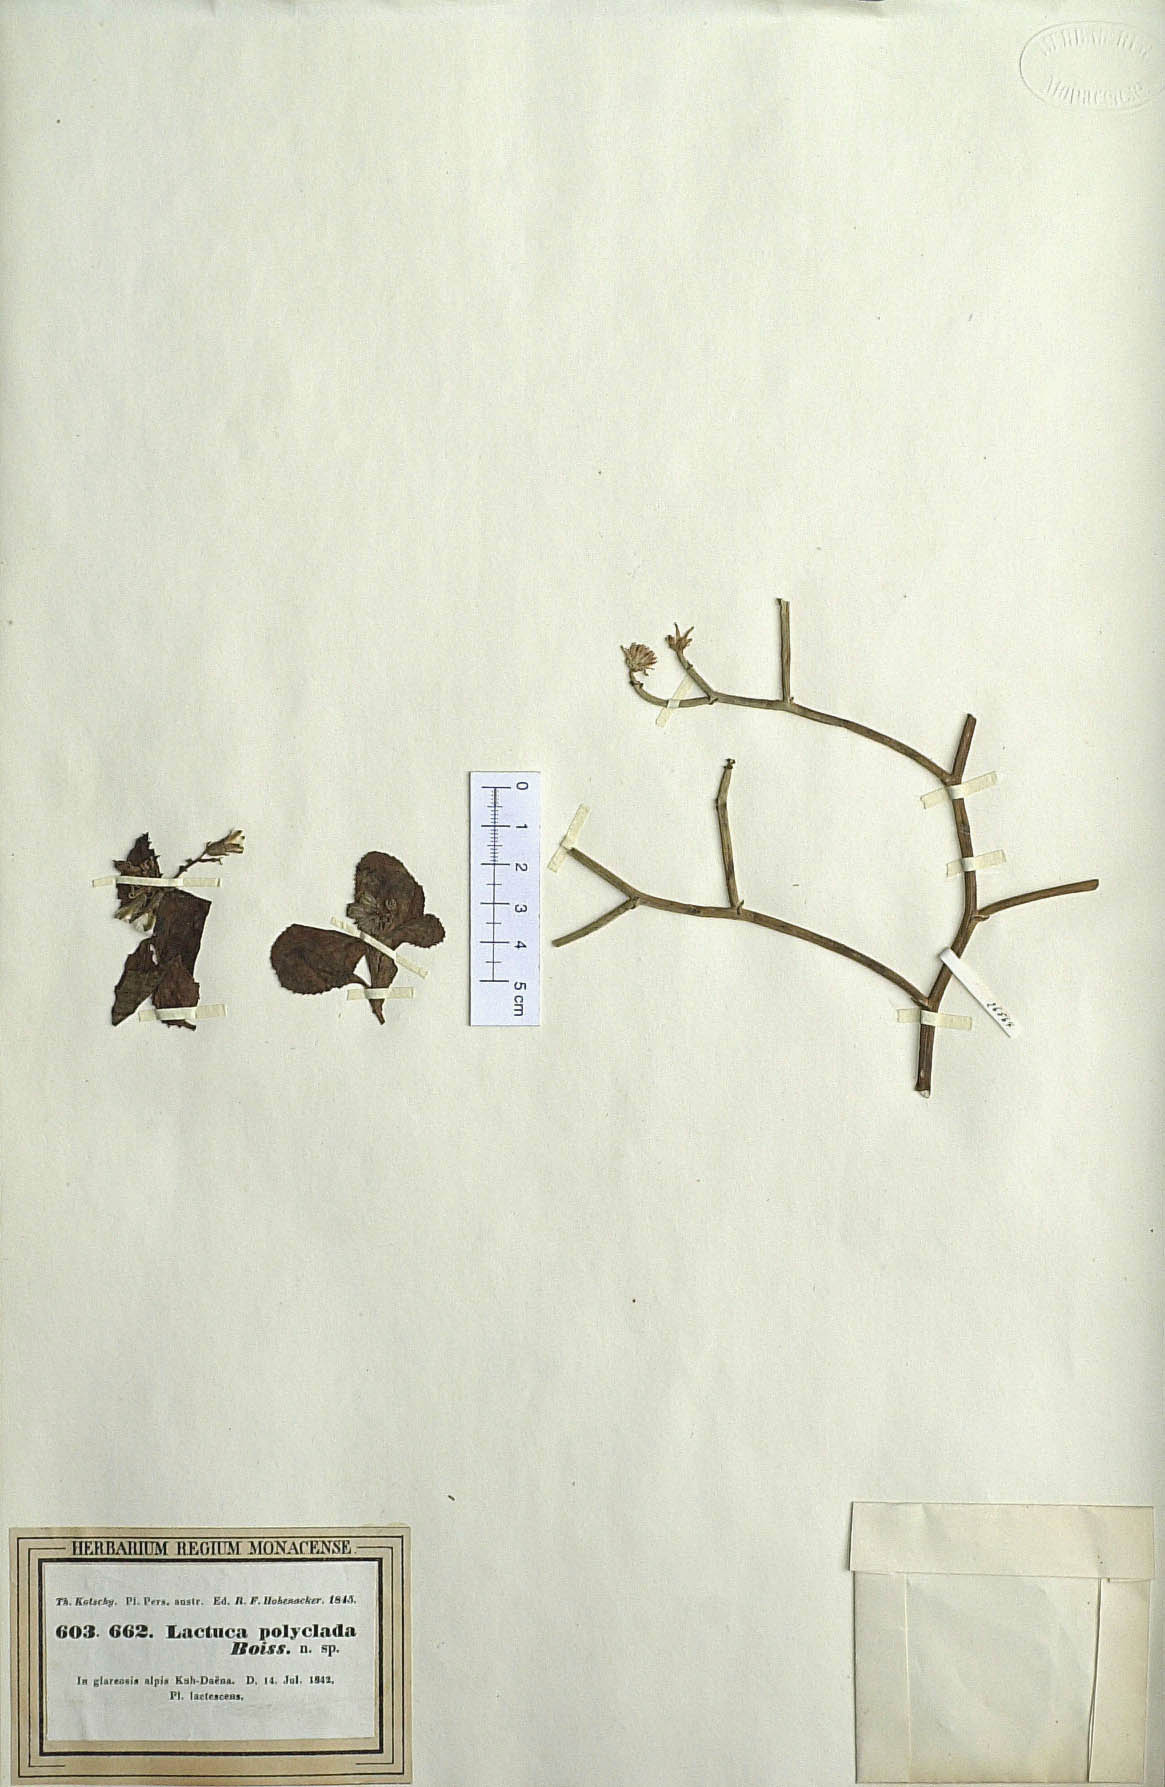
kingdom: Plantae
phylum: Tracheophyta
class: Magnoliopsida
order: Asterales
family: Asteraceae
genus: Melanoseris
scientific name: Melanoseris polyclada
